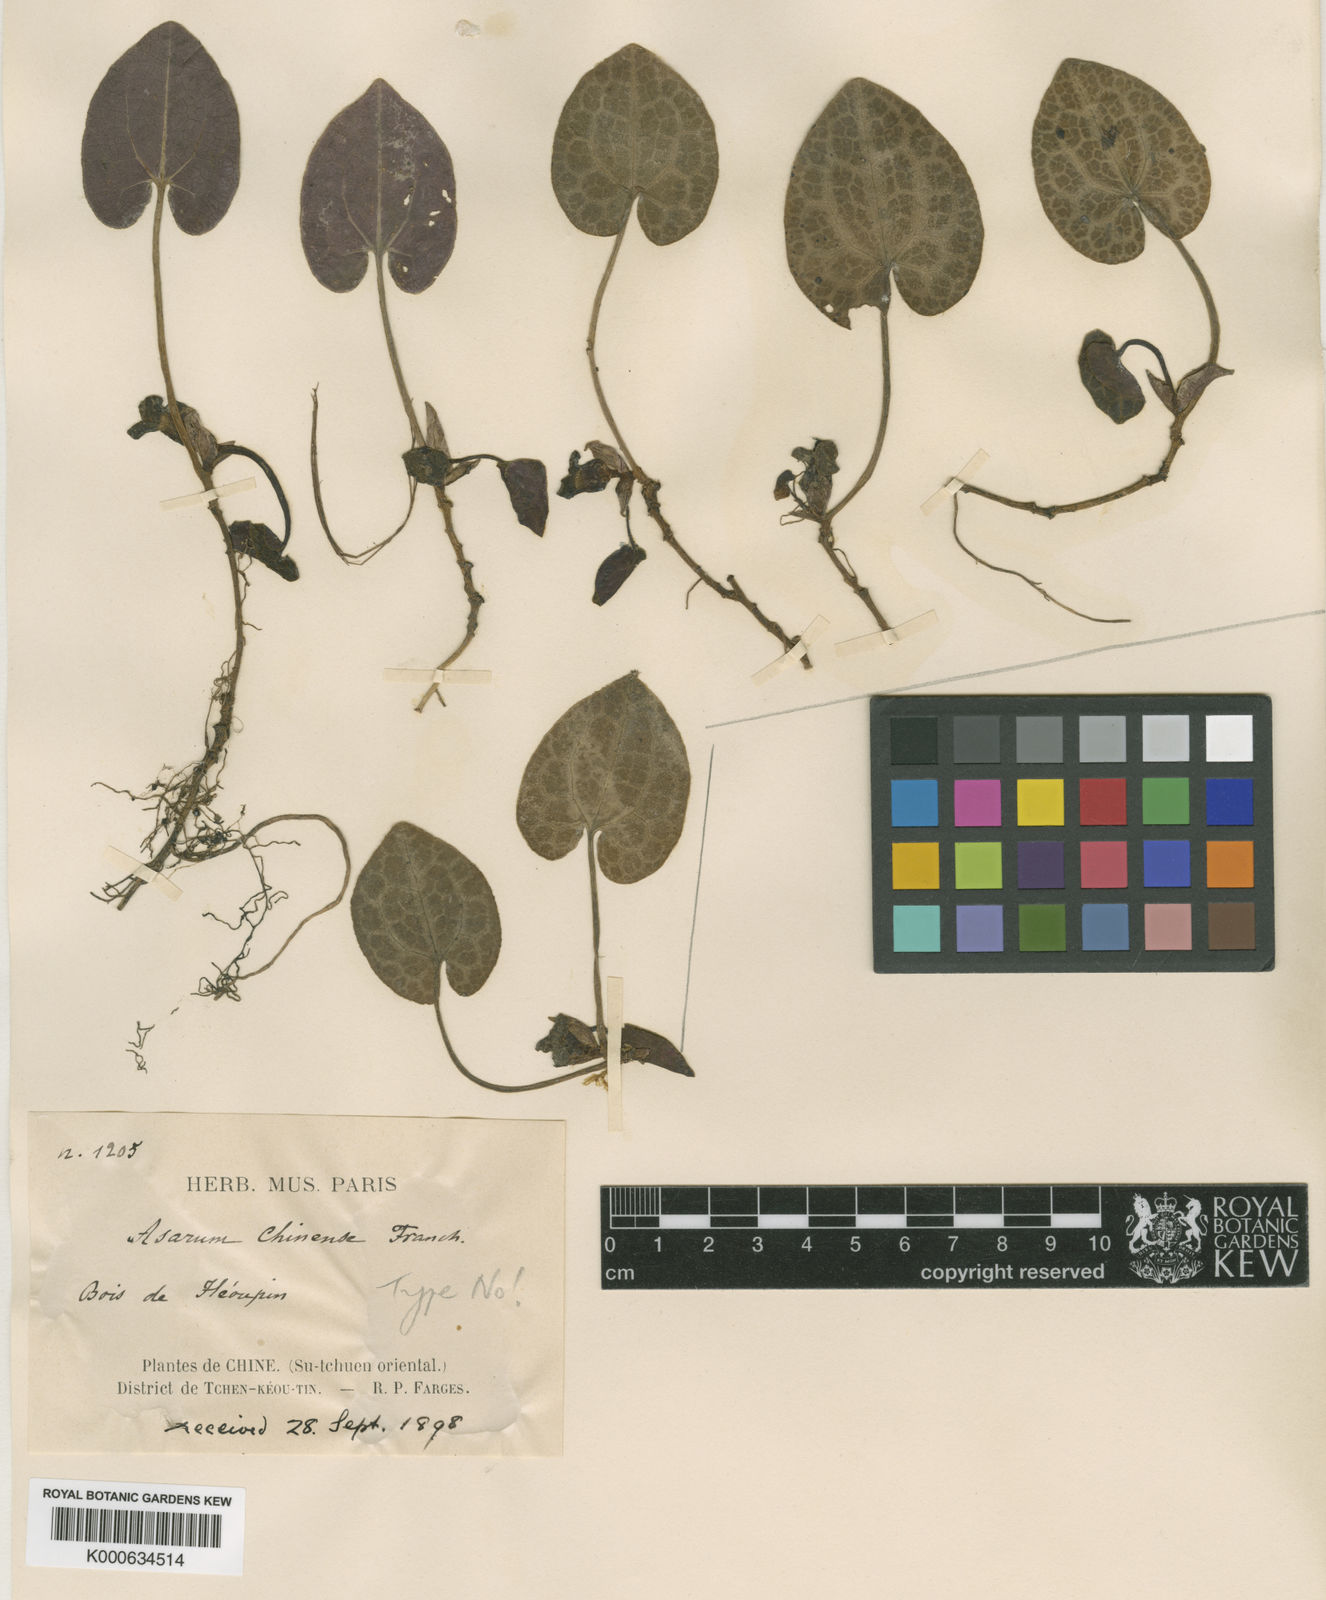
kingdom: Plantae
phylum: Tracheophyta
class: Magnoliopsida
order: Piperales
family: Aristolochiaceae
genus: Asarum
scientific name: Asarum chinense
